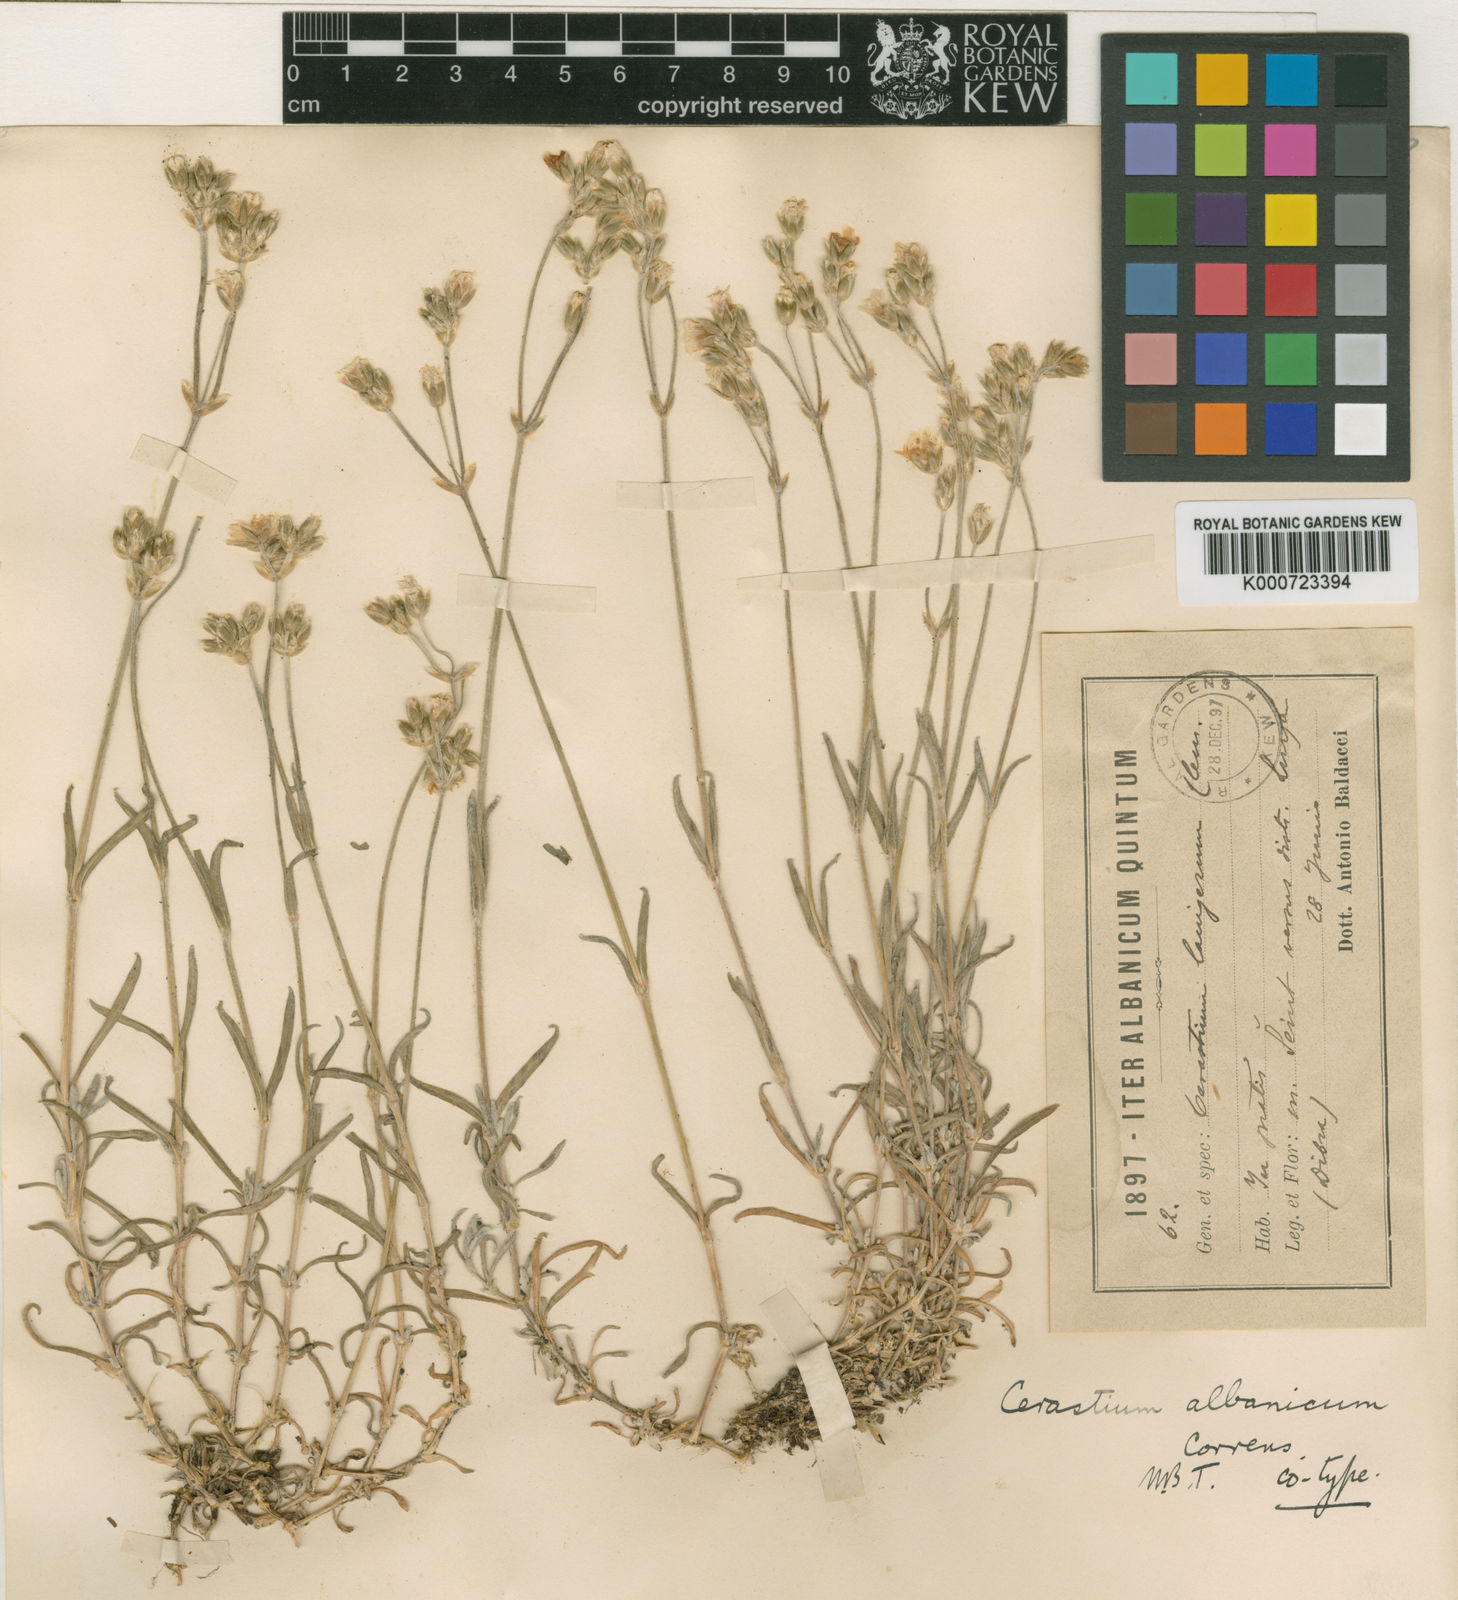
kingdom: Plantae
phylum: Tracheophyta
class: Magnoliopsida
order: Caryophyllales
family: Caryophyllaceae
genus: Cerastium
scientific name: Cerastium decalvans
